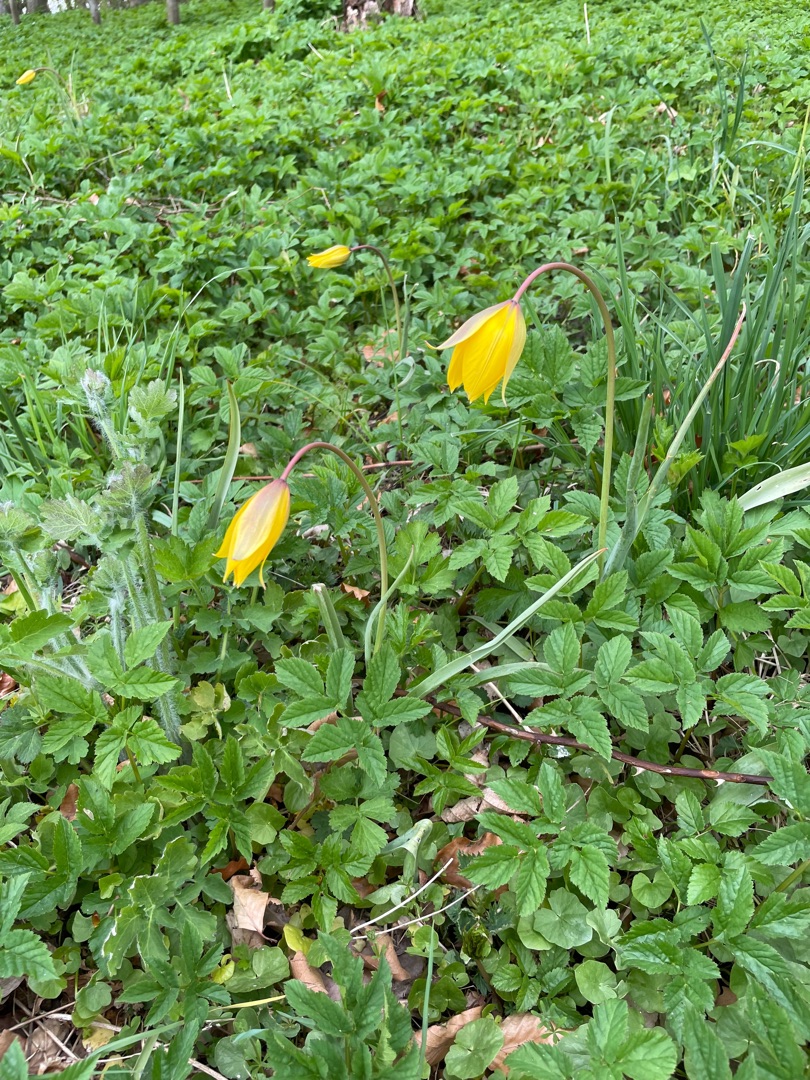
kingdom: Plantae
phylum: Tracheophyta
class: Liliopsida
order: Liliales
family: Liliaceae
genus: Tulipa
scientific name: Tulipa sylvestris
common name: Vild tulipan
